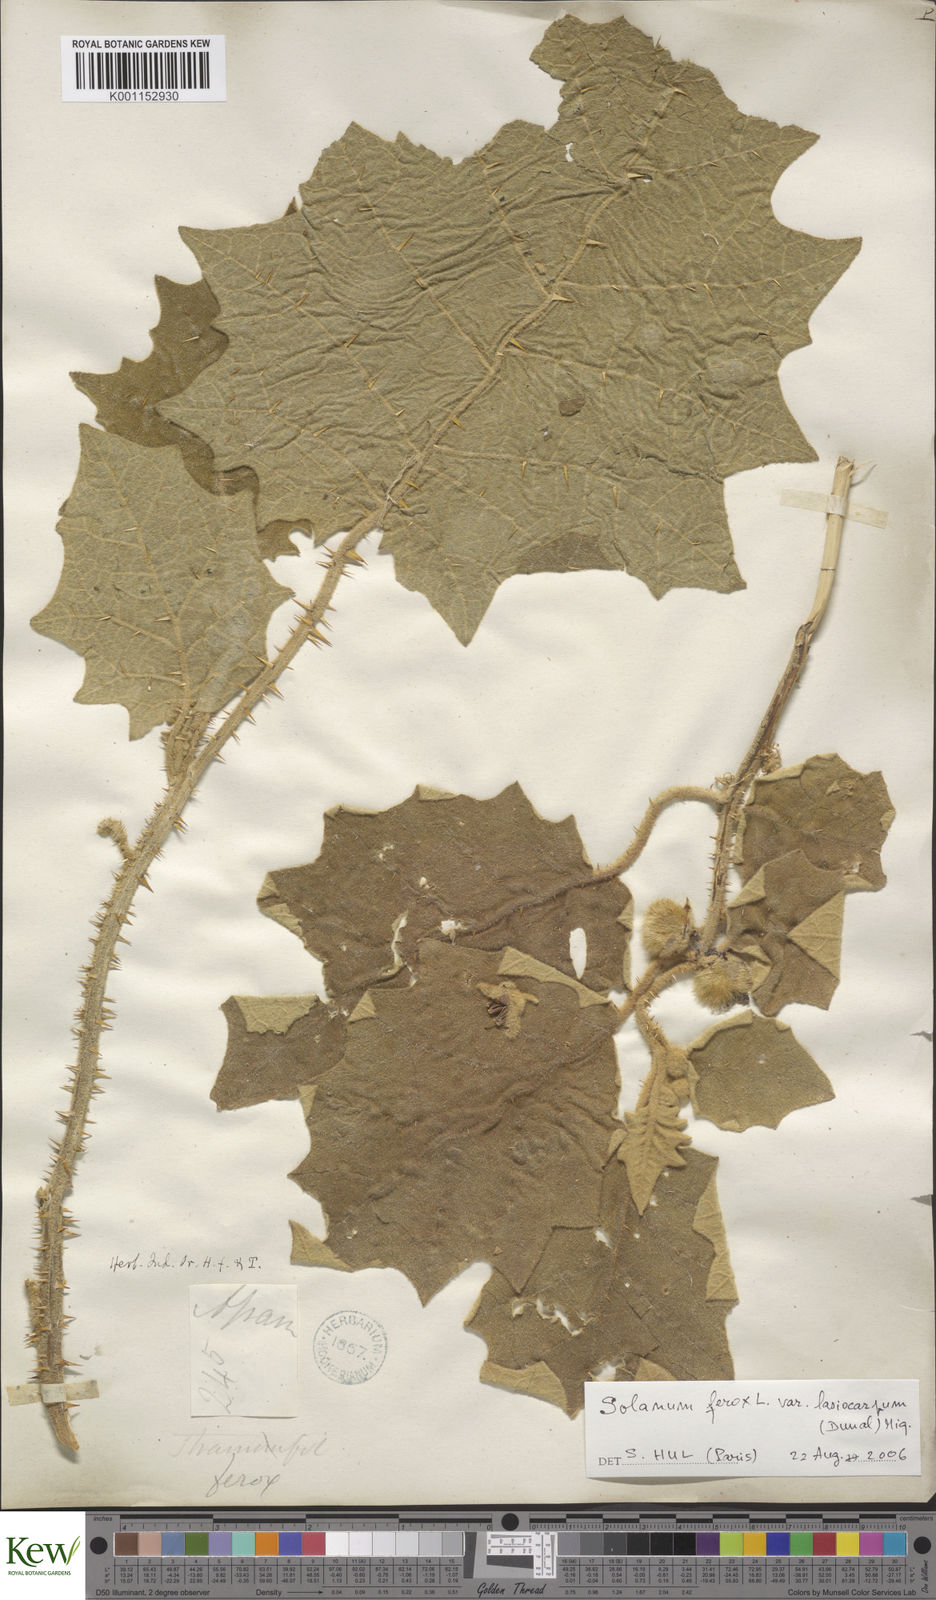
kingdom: Plantae
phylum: Tracheophyta
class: Magnoliopsida
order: Solanales
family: Solanaceae
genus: Solanum
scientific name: Solanum
